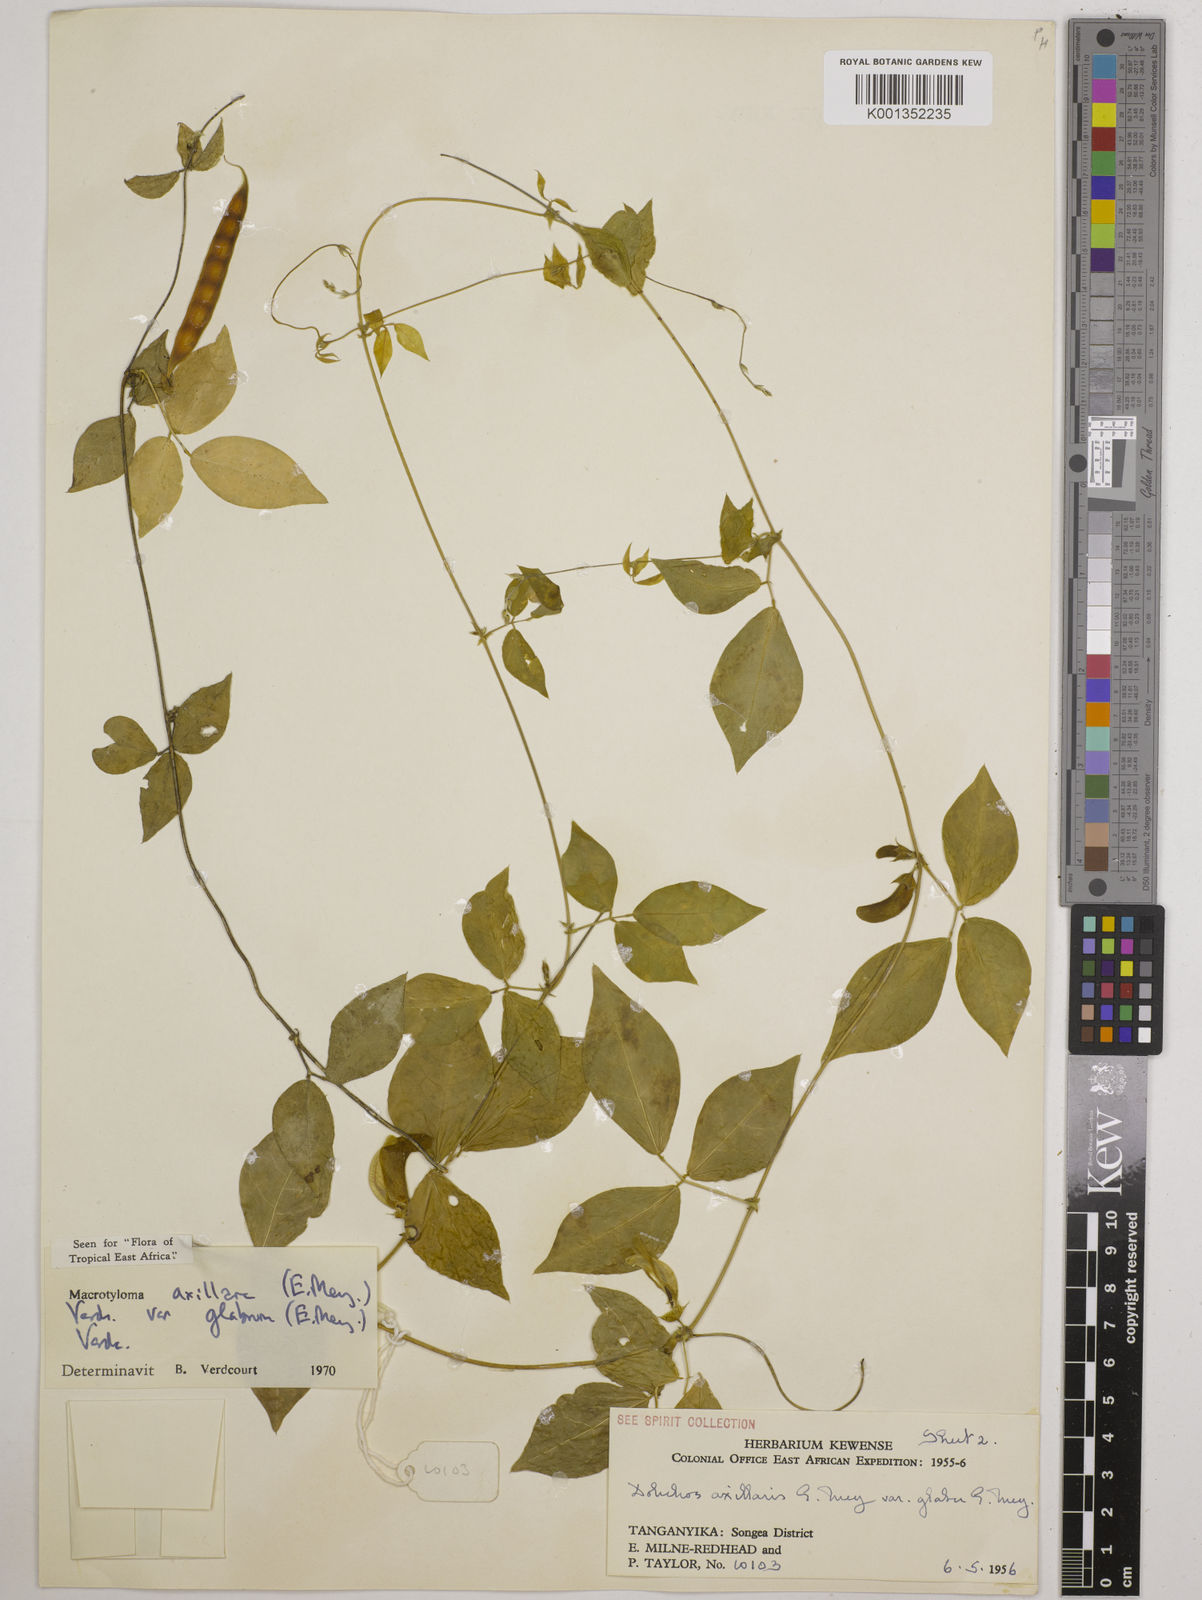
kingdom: Plantae
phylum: Tracheophyta
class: Magnoliopsida
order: Fabales
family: Fabaceae
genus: Macrotyloma
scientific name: Macrotyloma
